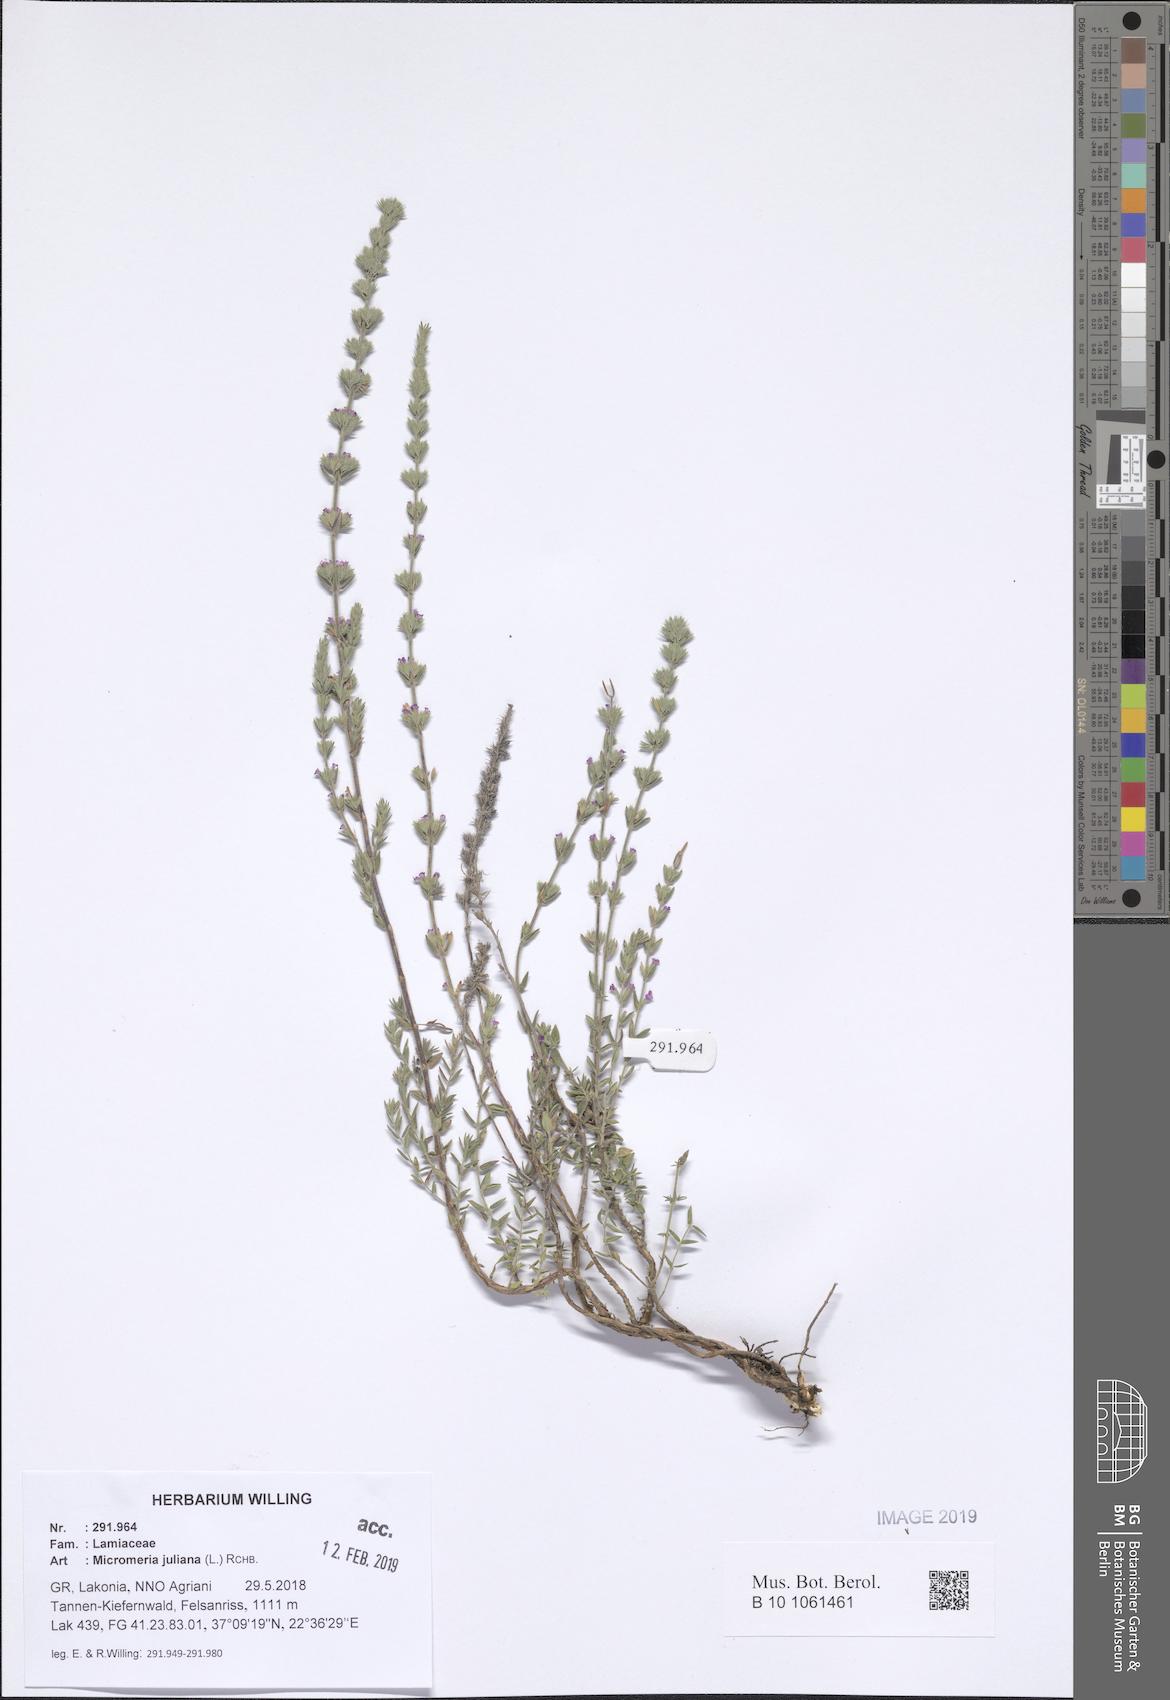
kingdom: Plantae
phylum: Tracheophyta
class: Magnoliopsida
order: Lamiales
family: Lamiaceae
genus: Micromeria
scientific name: Micromeria juliana
